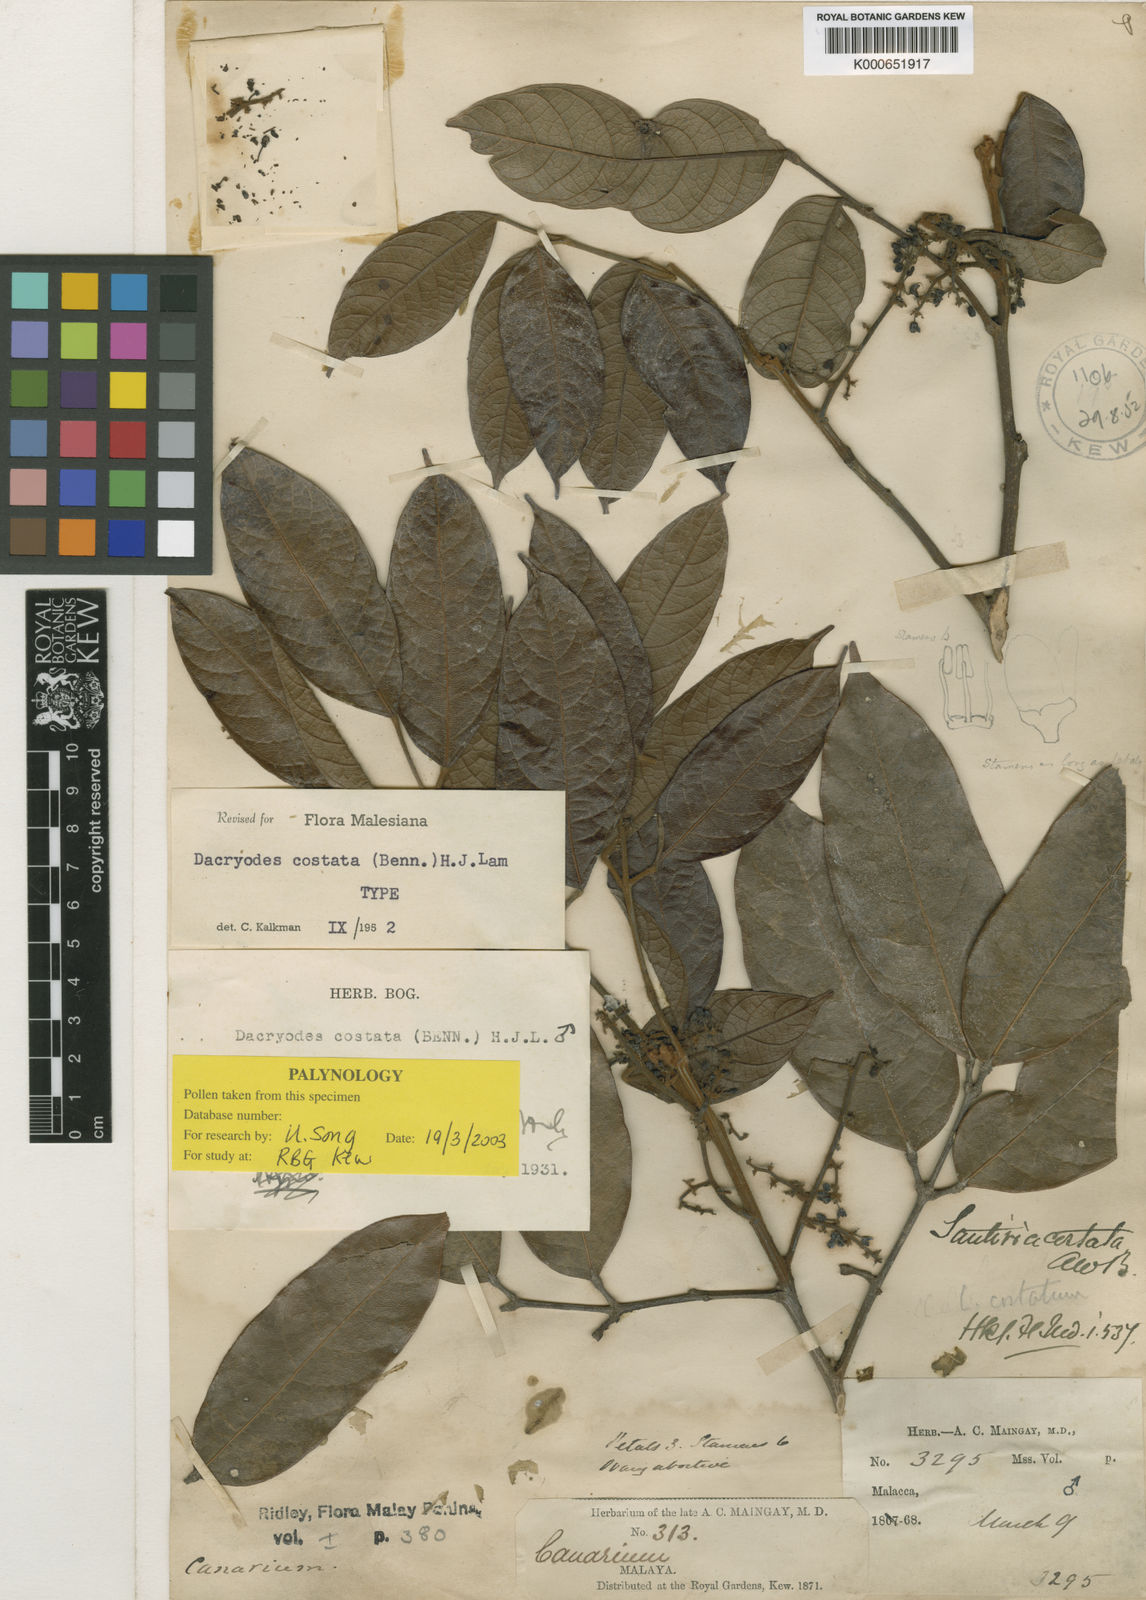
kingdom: Plantae
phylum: Tracheophyta
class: Magnoliopsida
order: Sapindales
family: Burseraceae
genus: Dacryodes
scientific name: Dacryodes costata
